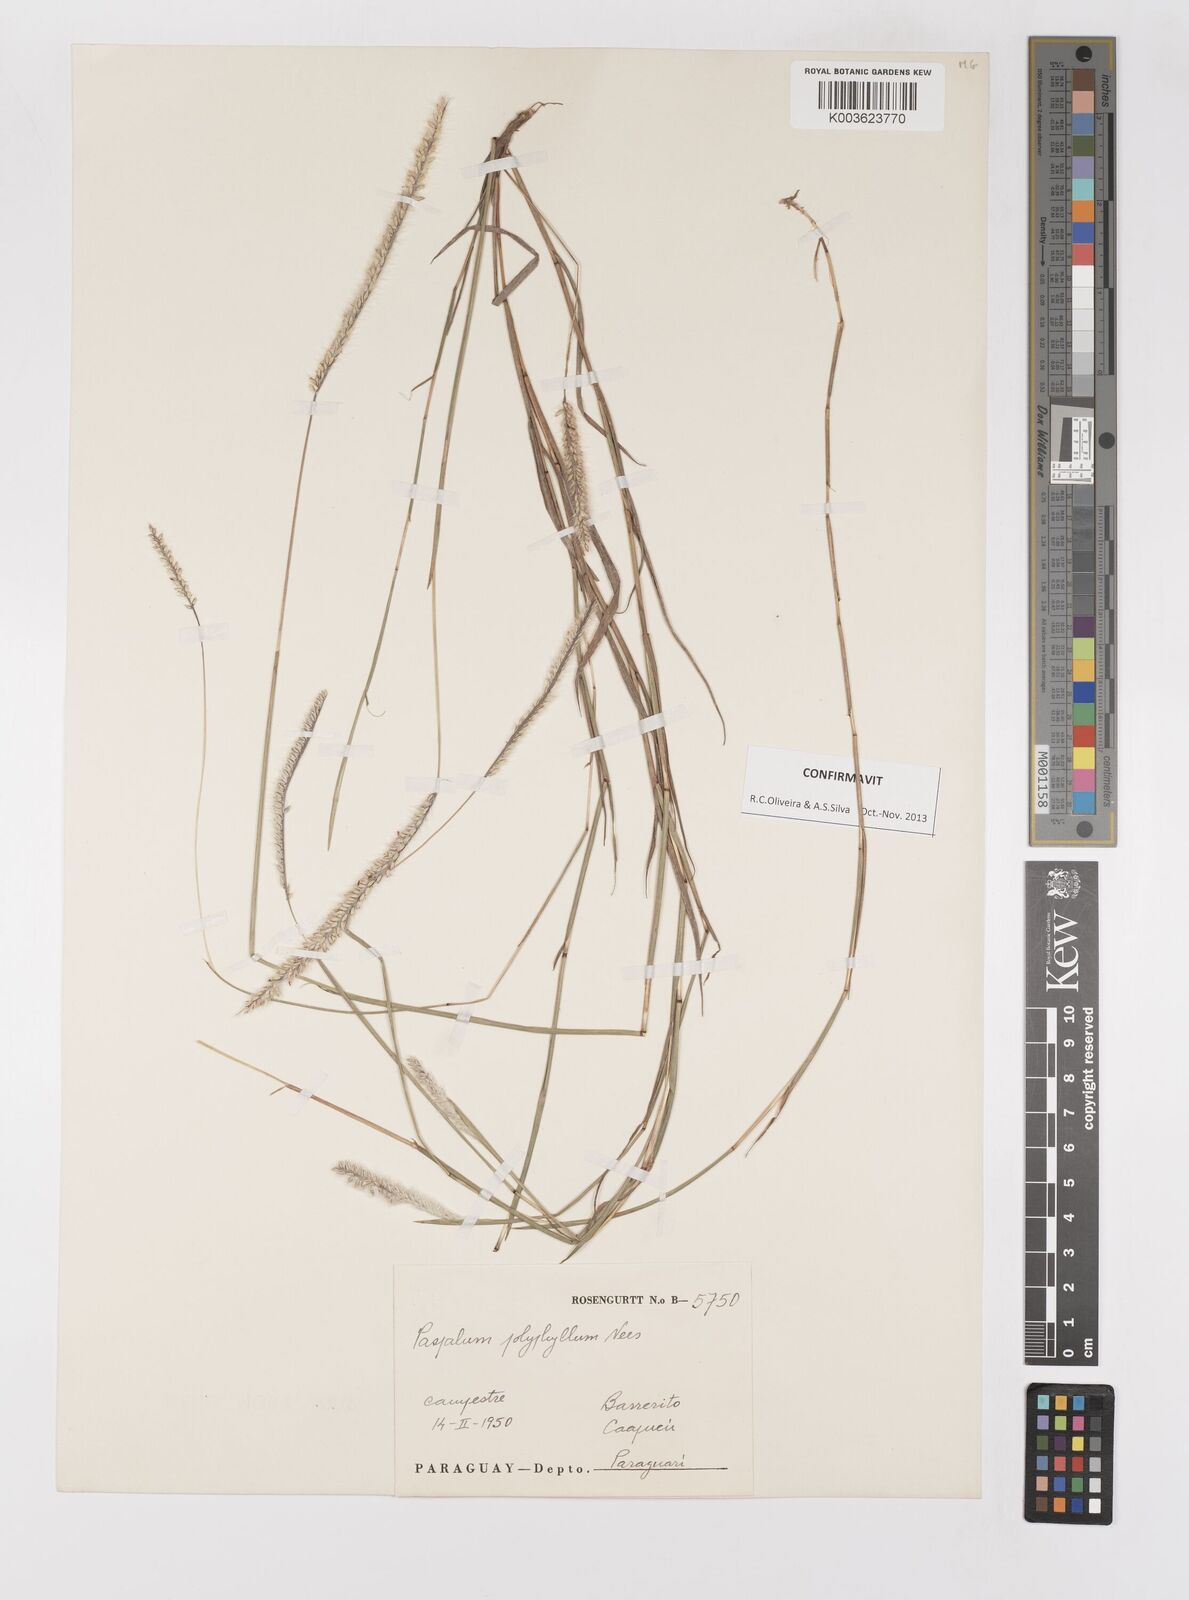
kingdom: Plantae
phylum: Tracheophyta
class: Liliopsida
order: Poales
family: Poaceae
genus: Paspalum
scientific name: Paspalum polyphyllum
